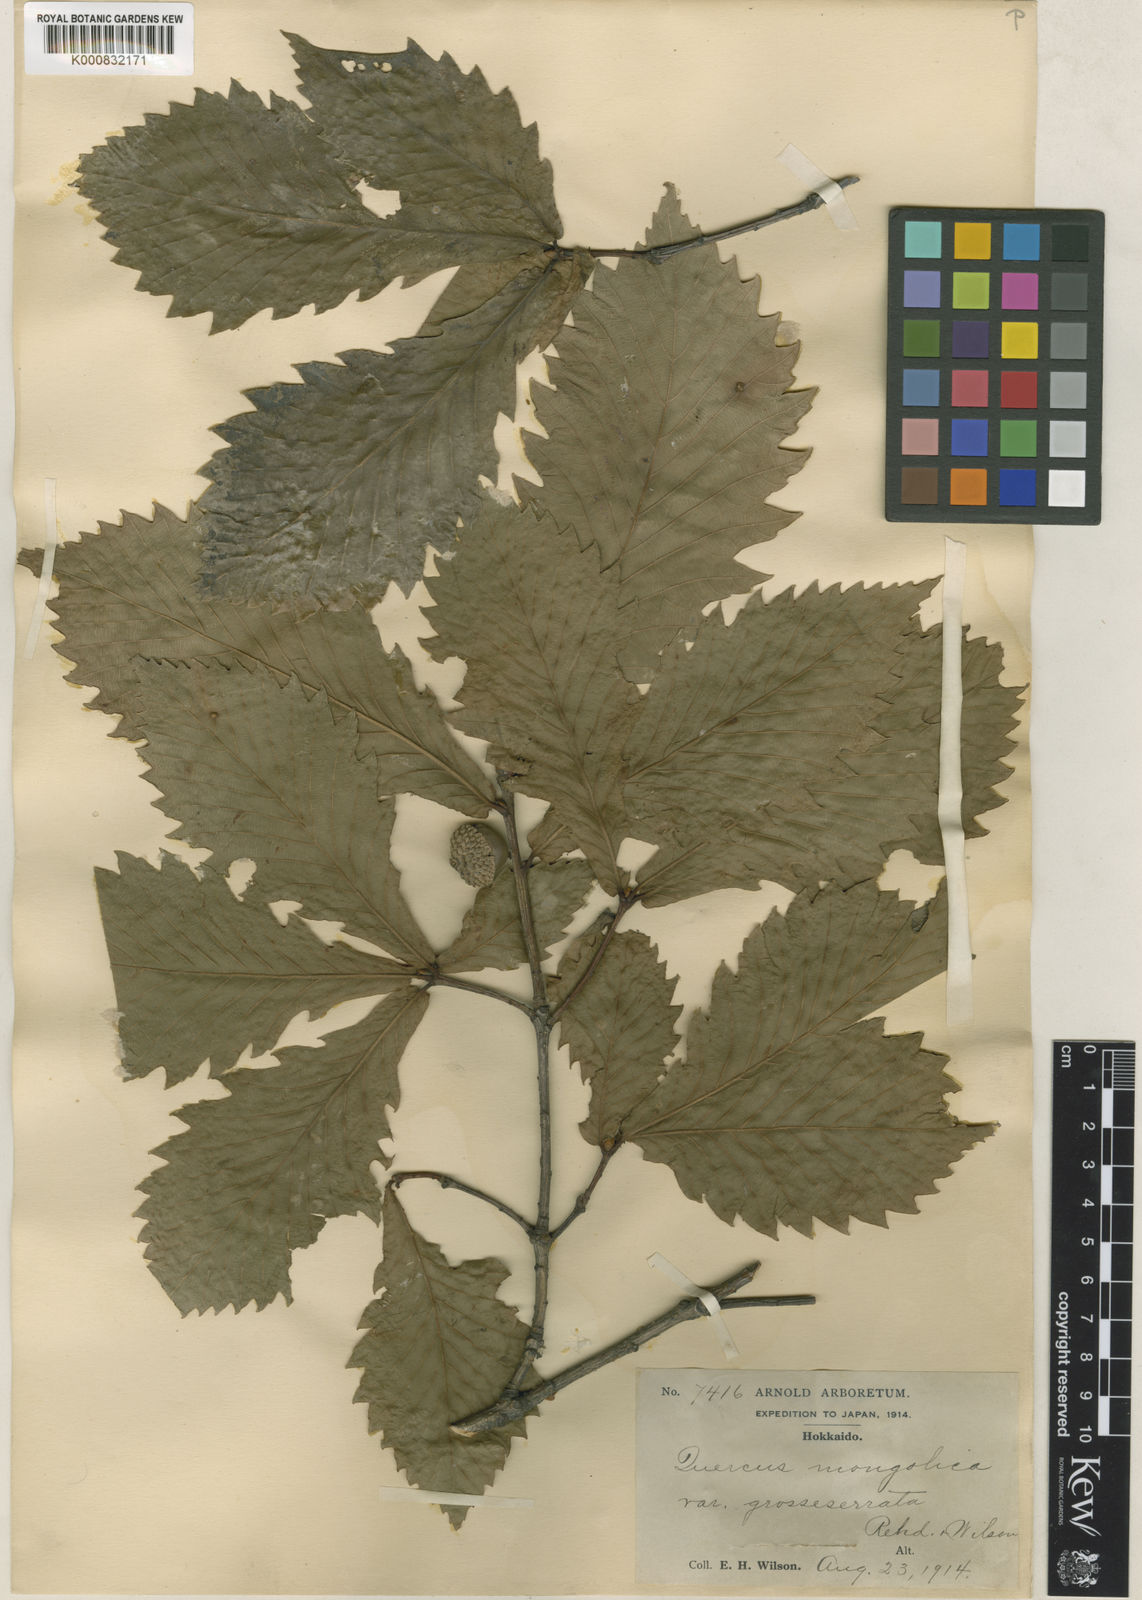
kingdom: Plantae
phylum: Tracheophyta
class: Magnoliopsida
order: Fagales
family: Fagaceae
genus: Quercus
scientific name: Quercus mongolica
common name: Mongolian oak
